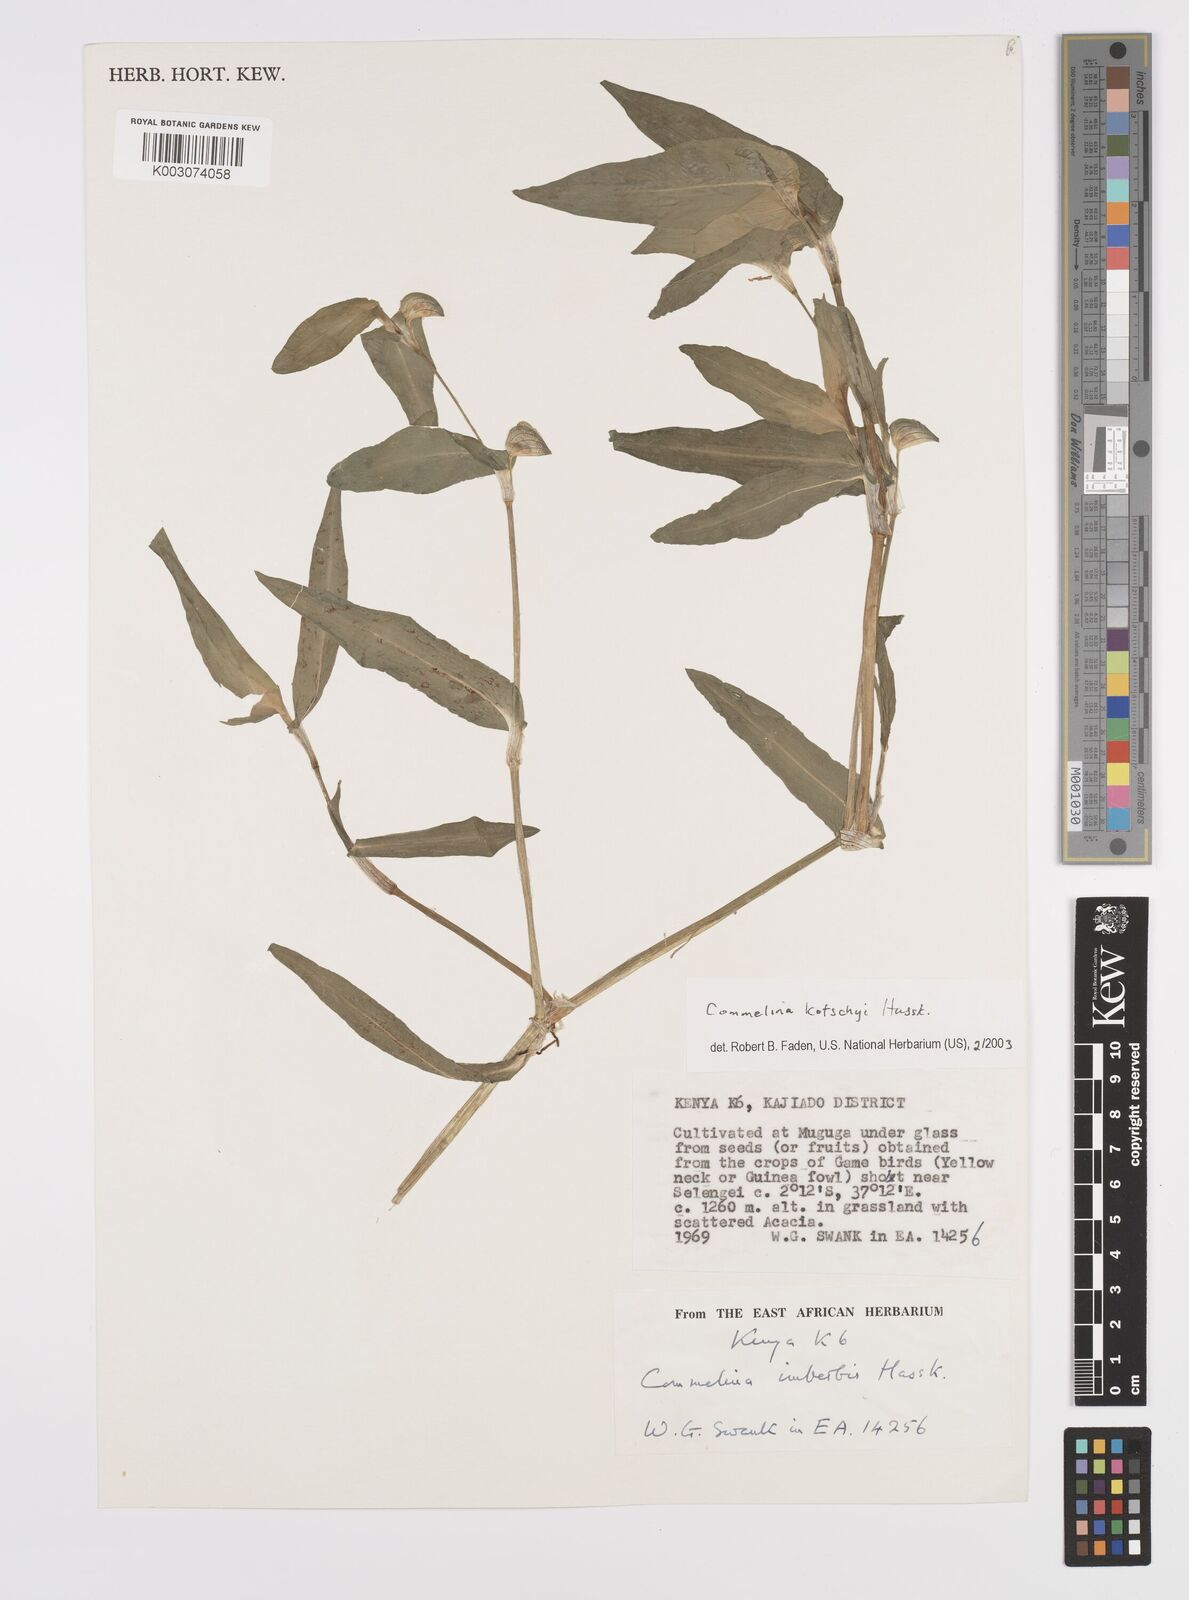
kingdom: Plantae
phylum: Tracheophyta
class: Liliopsida
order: Commelinales
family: Commelinaceae
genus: Commelina
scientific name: Commelina kotschyi
